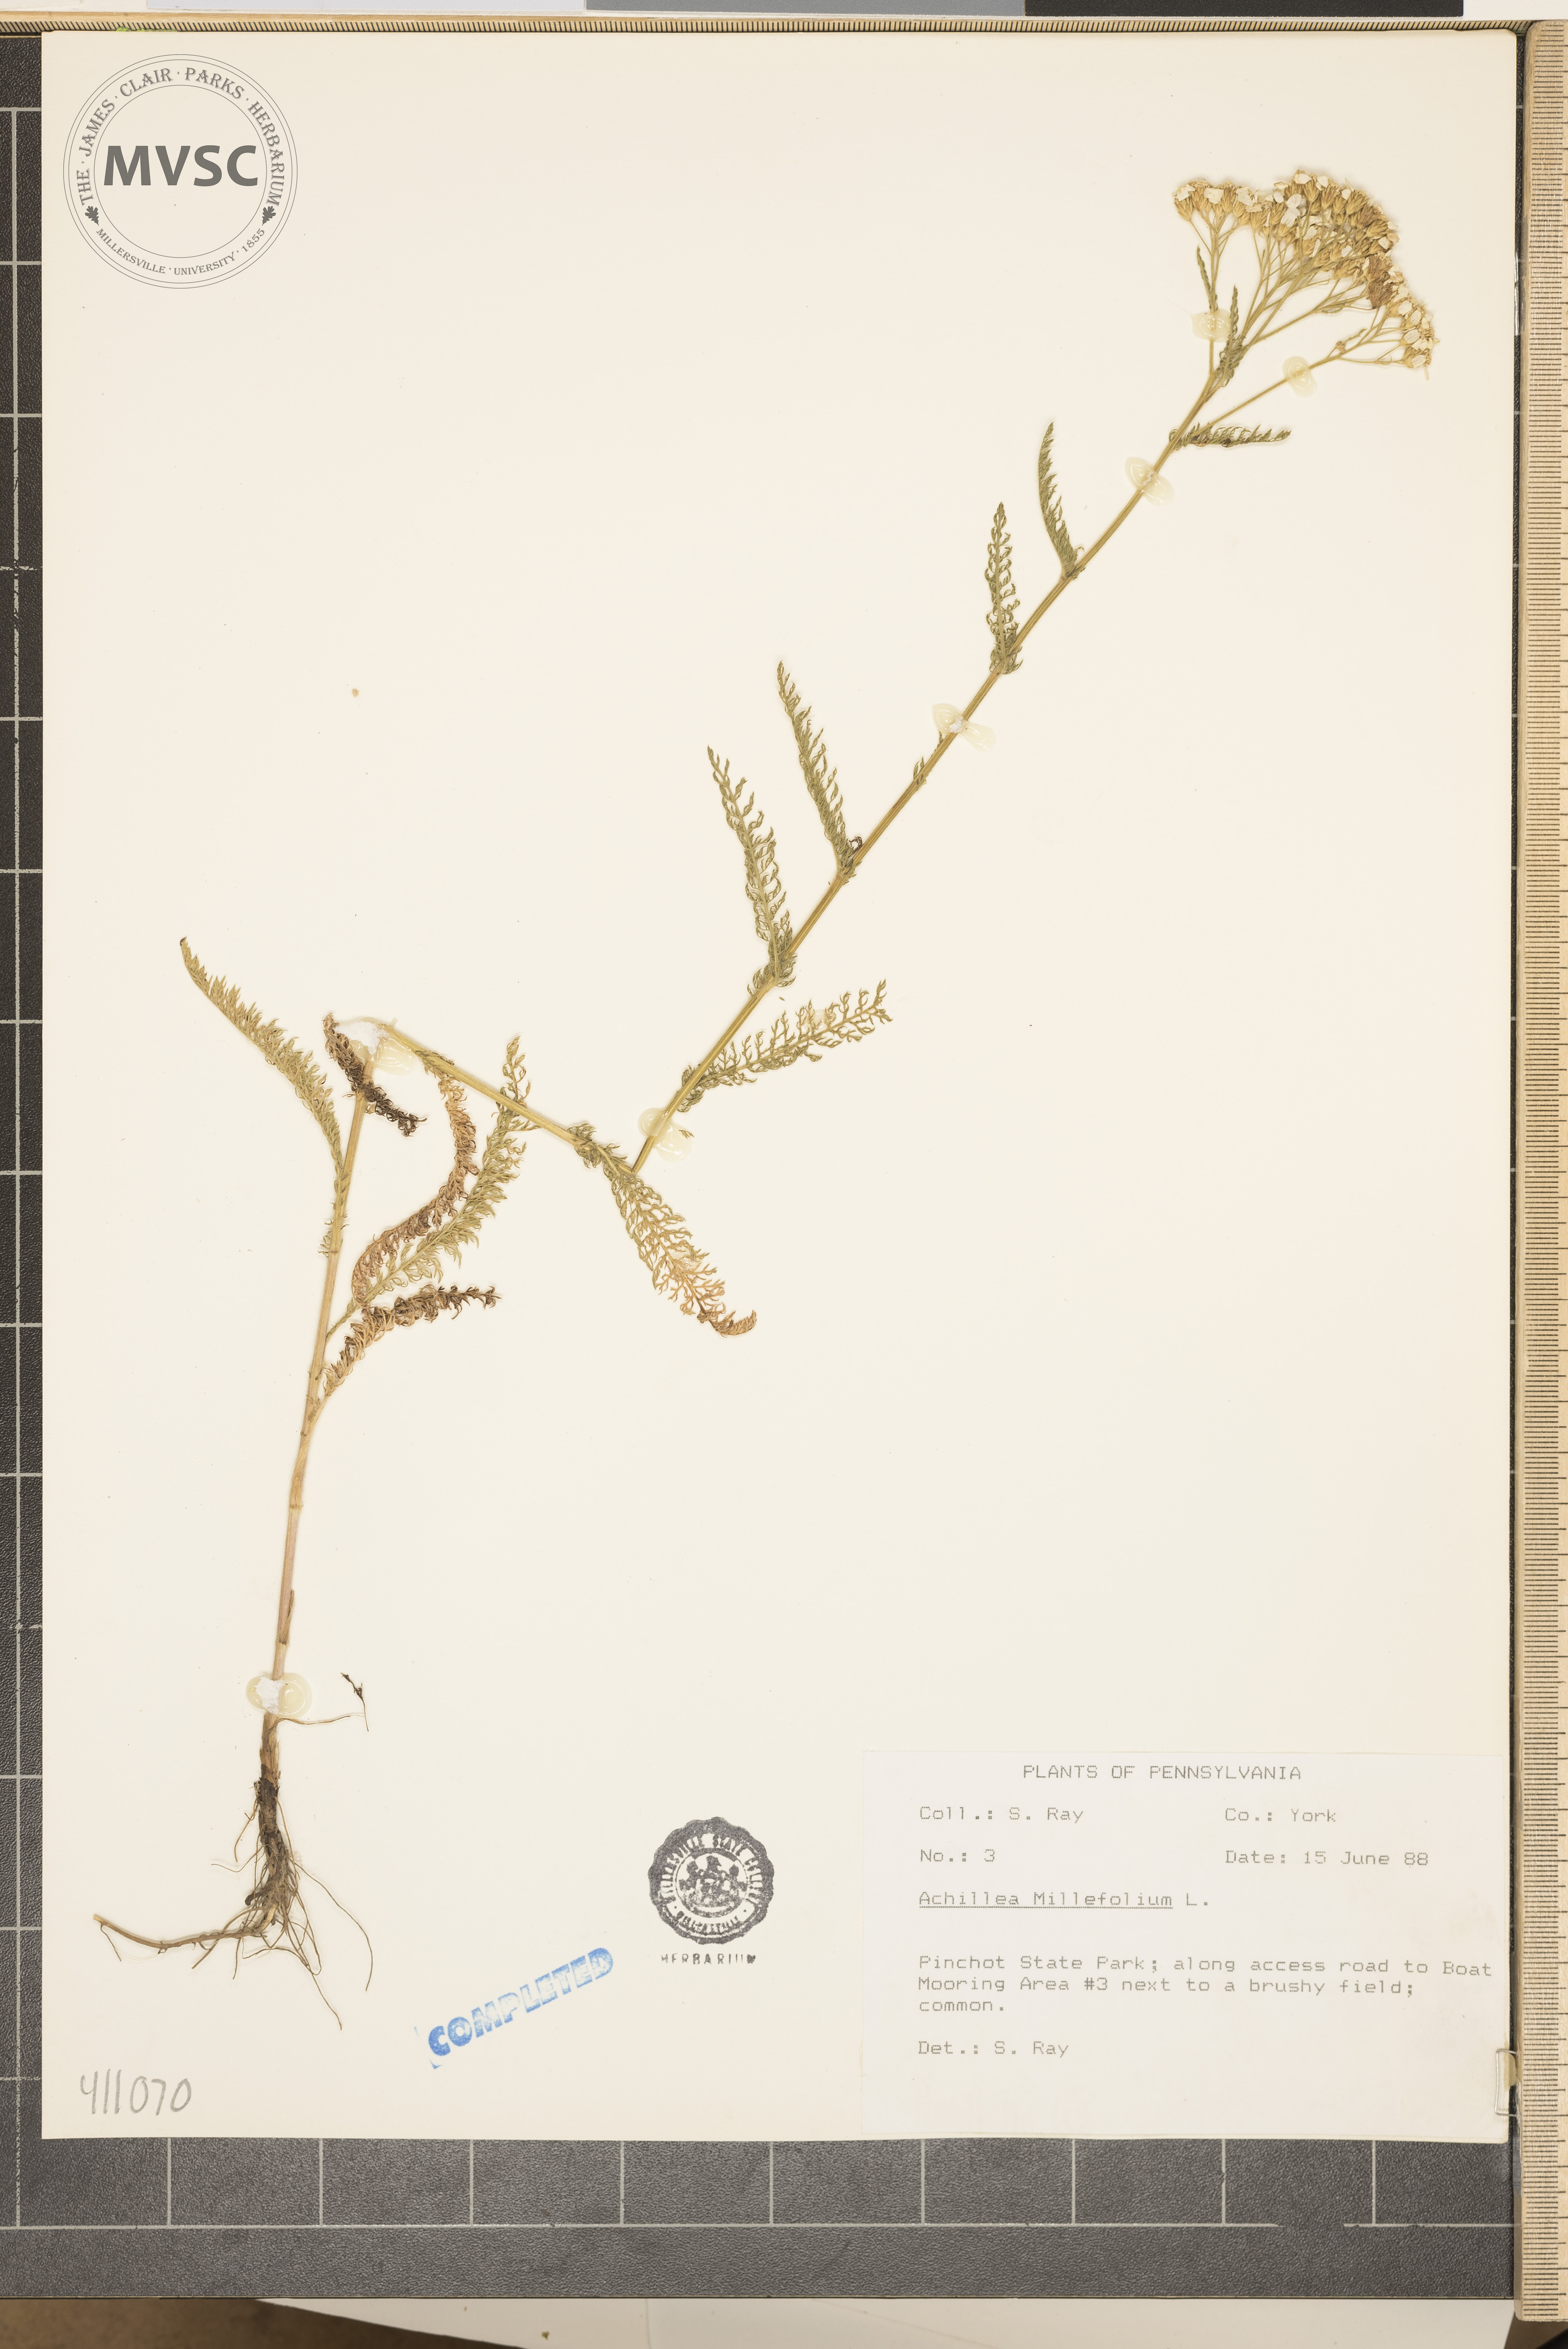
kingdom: Plantae
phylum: Tracheophyta
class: Magnoliopsida
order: Asterales
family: Asteraceae
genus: Achillea
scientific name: Achillea millefolium
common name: Yarrow
